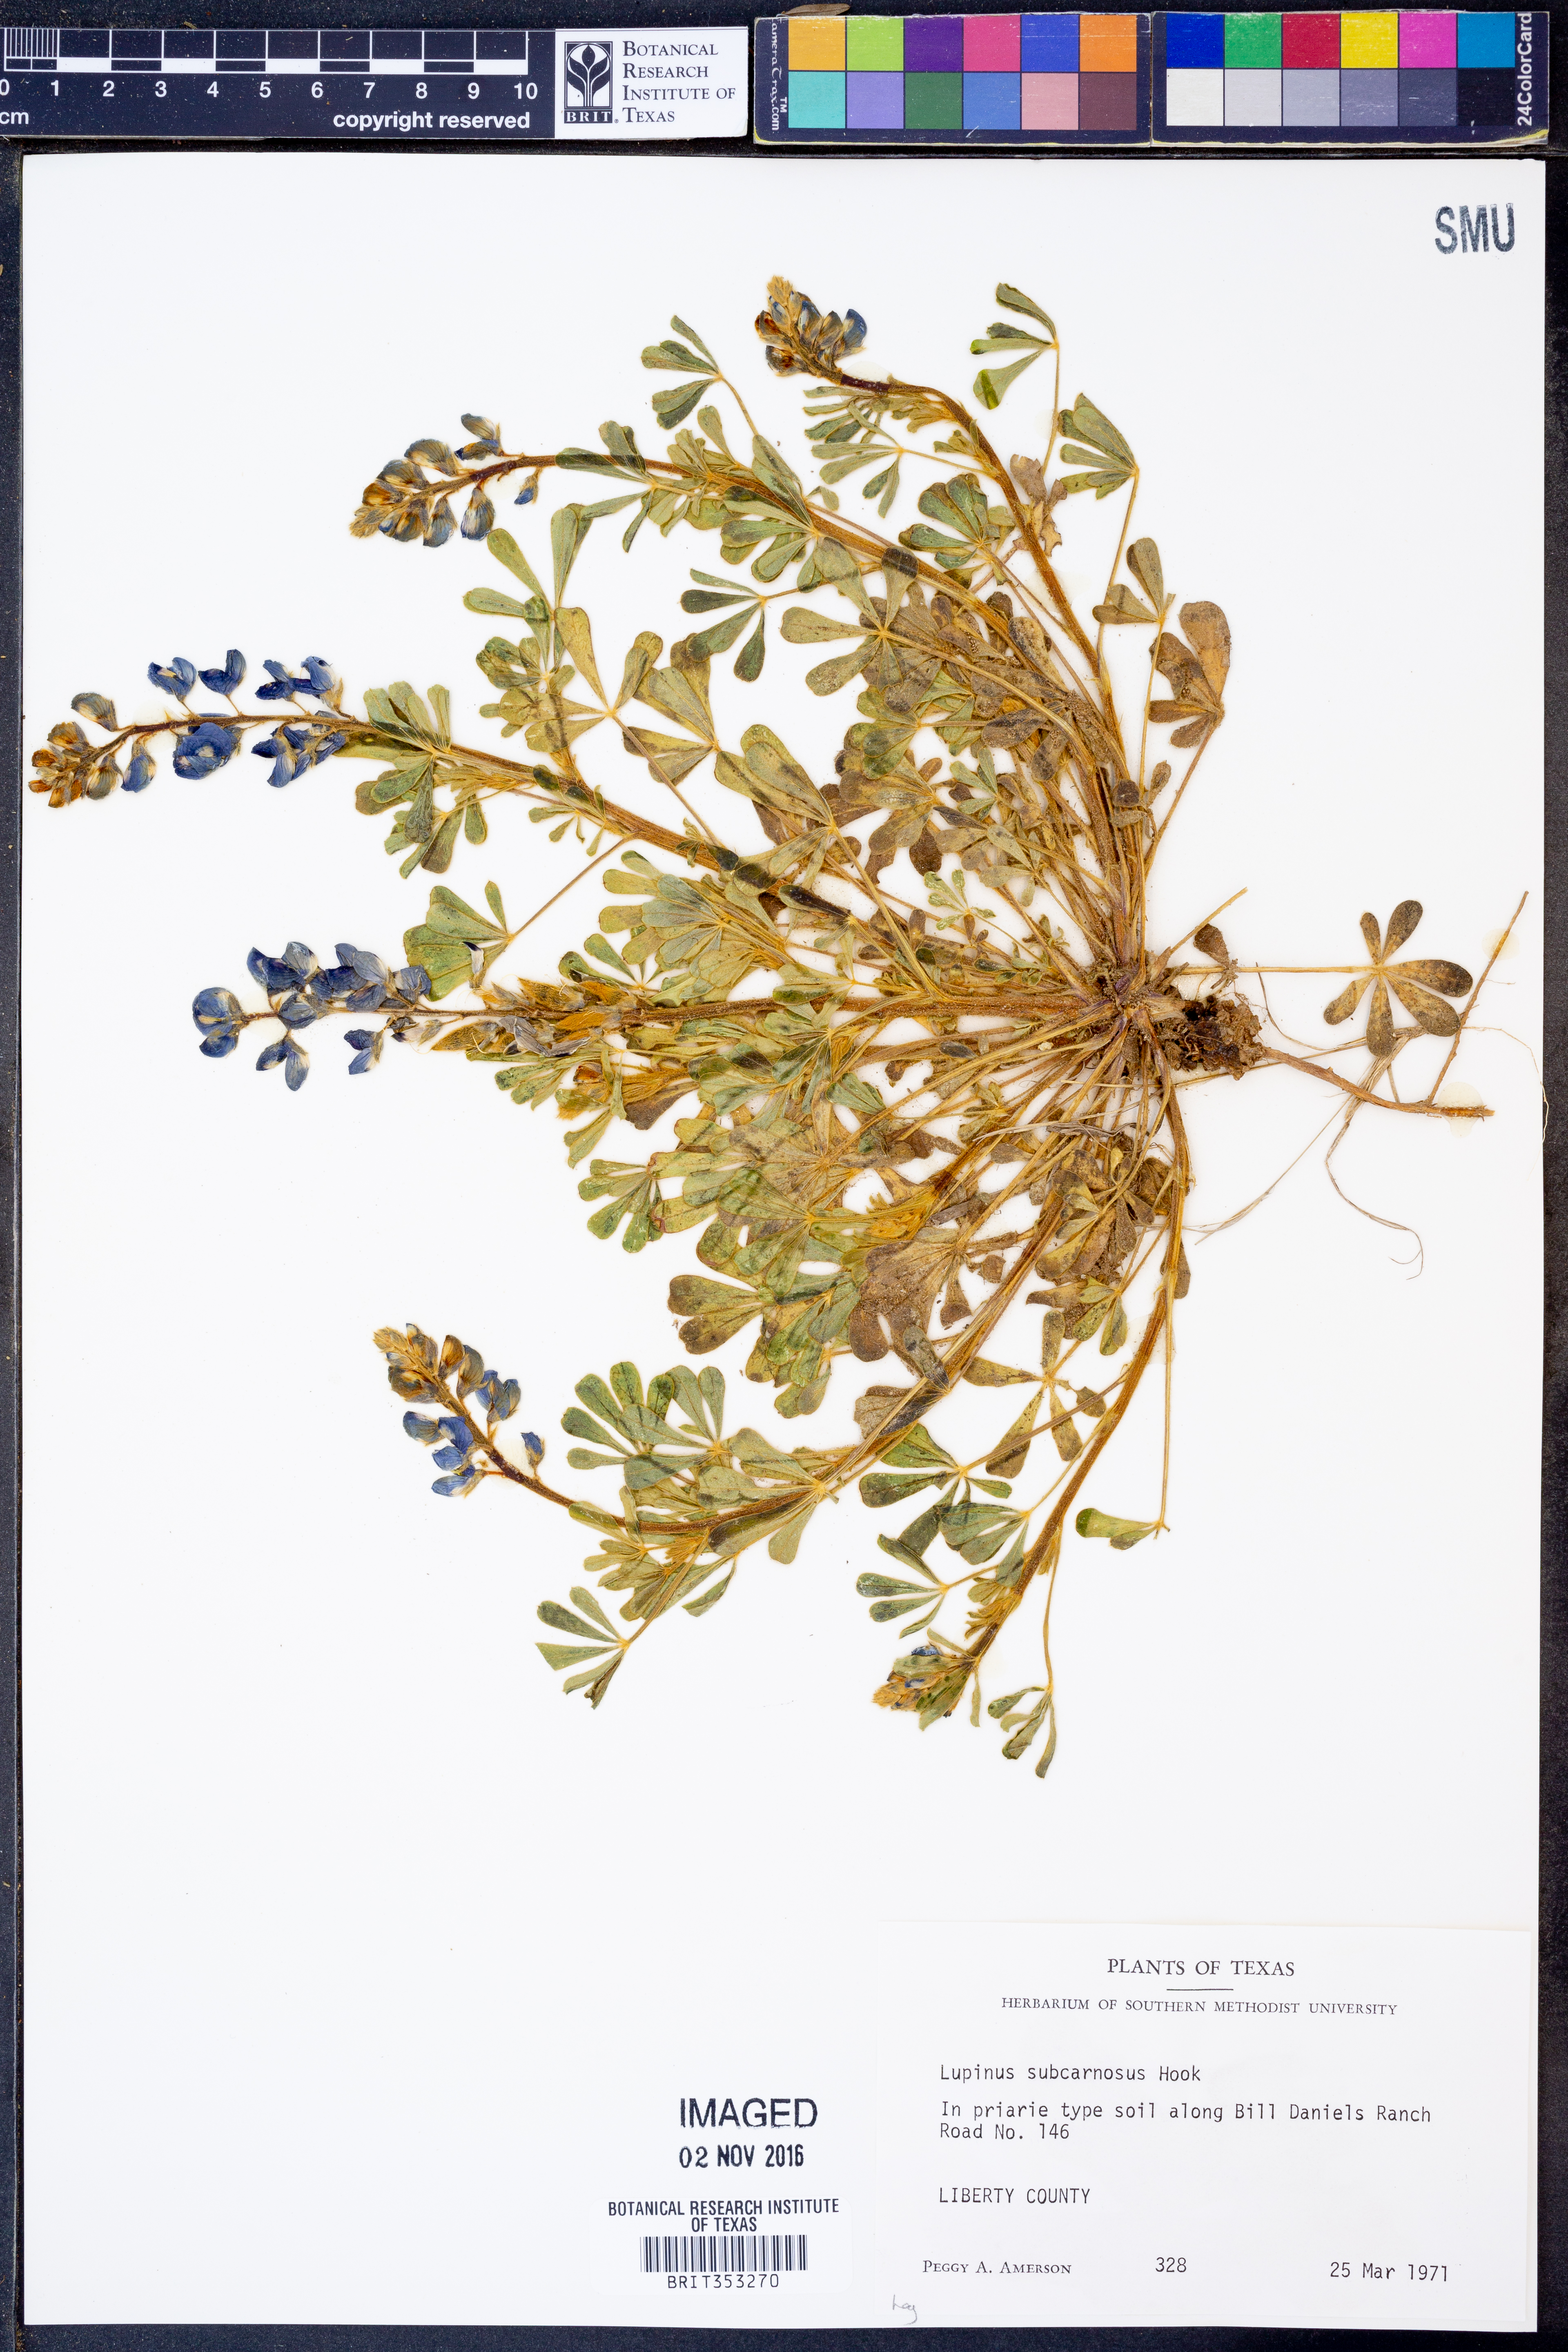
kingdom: Plantae
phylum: Tracheophyta
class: Magnoliopsida
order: Fabales
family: Fabaceae
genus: Lupinus
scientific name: Lupinus subcarnosus
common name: Texas bluebonnet
